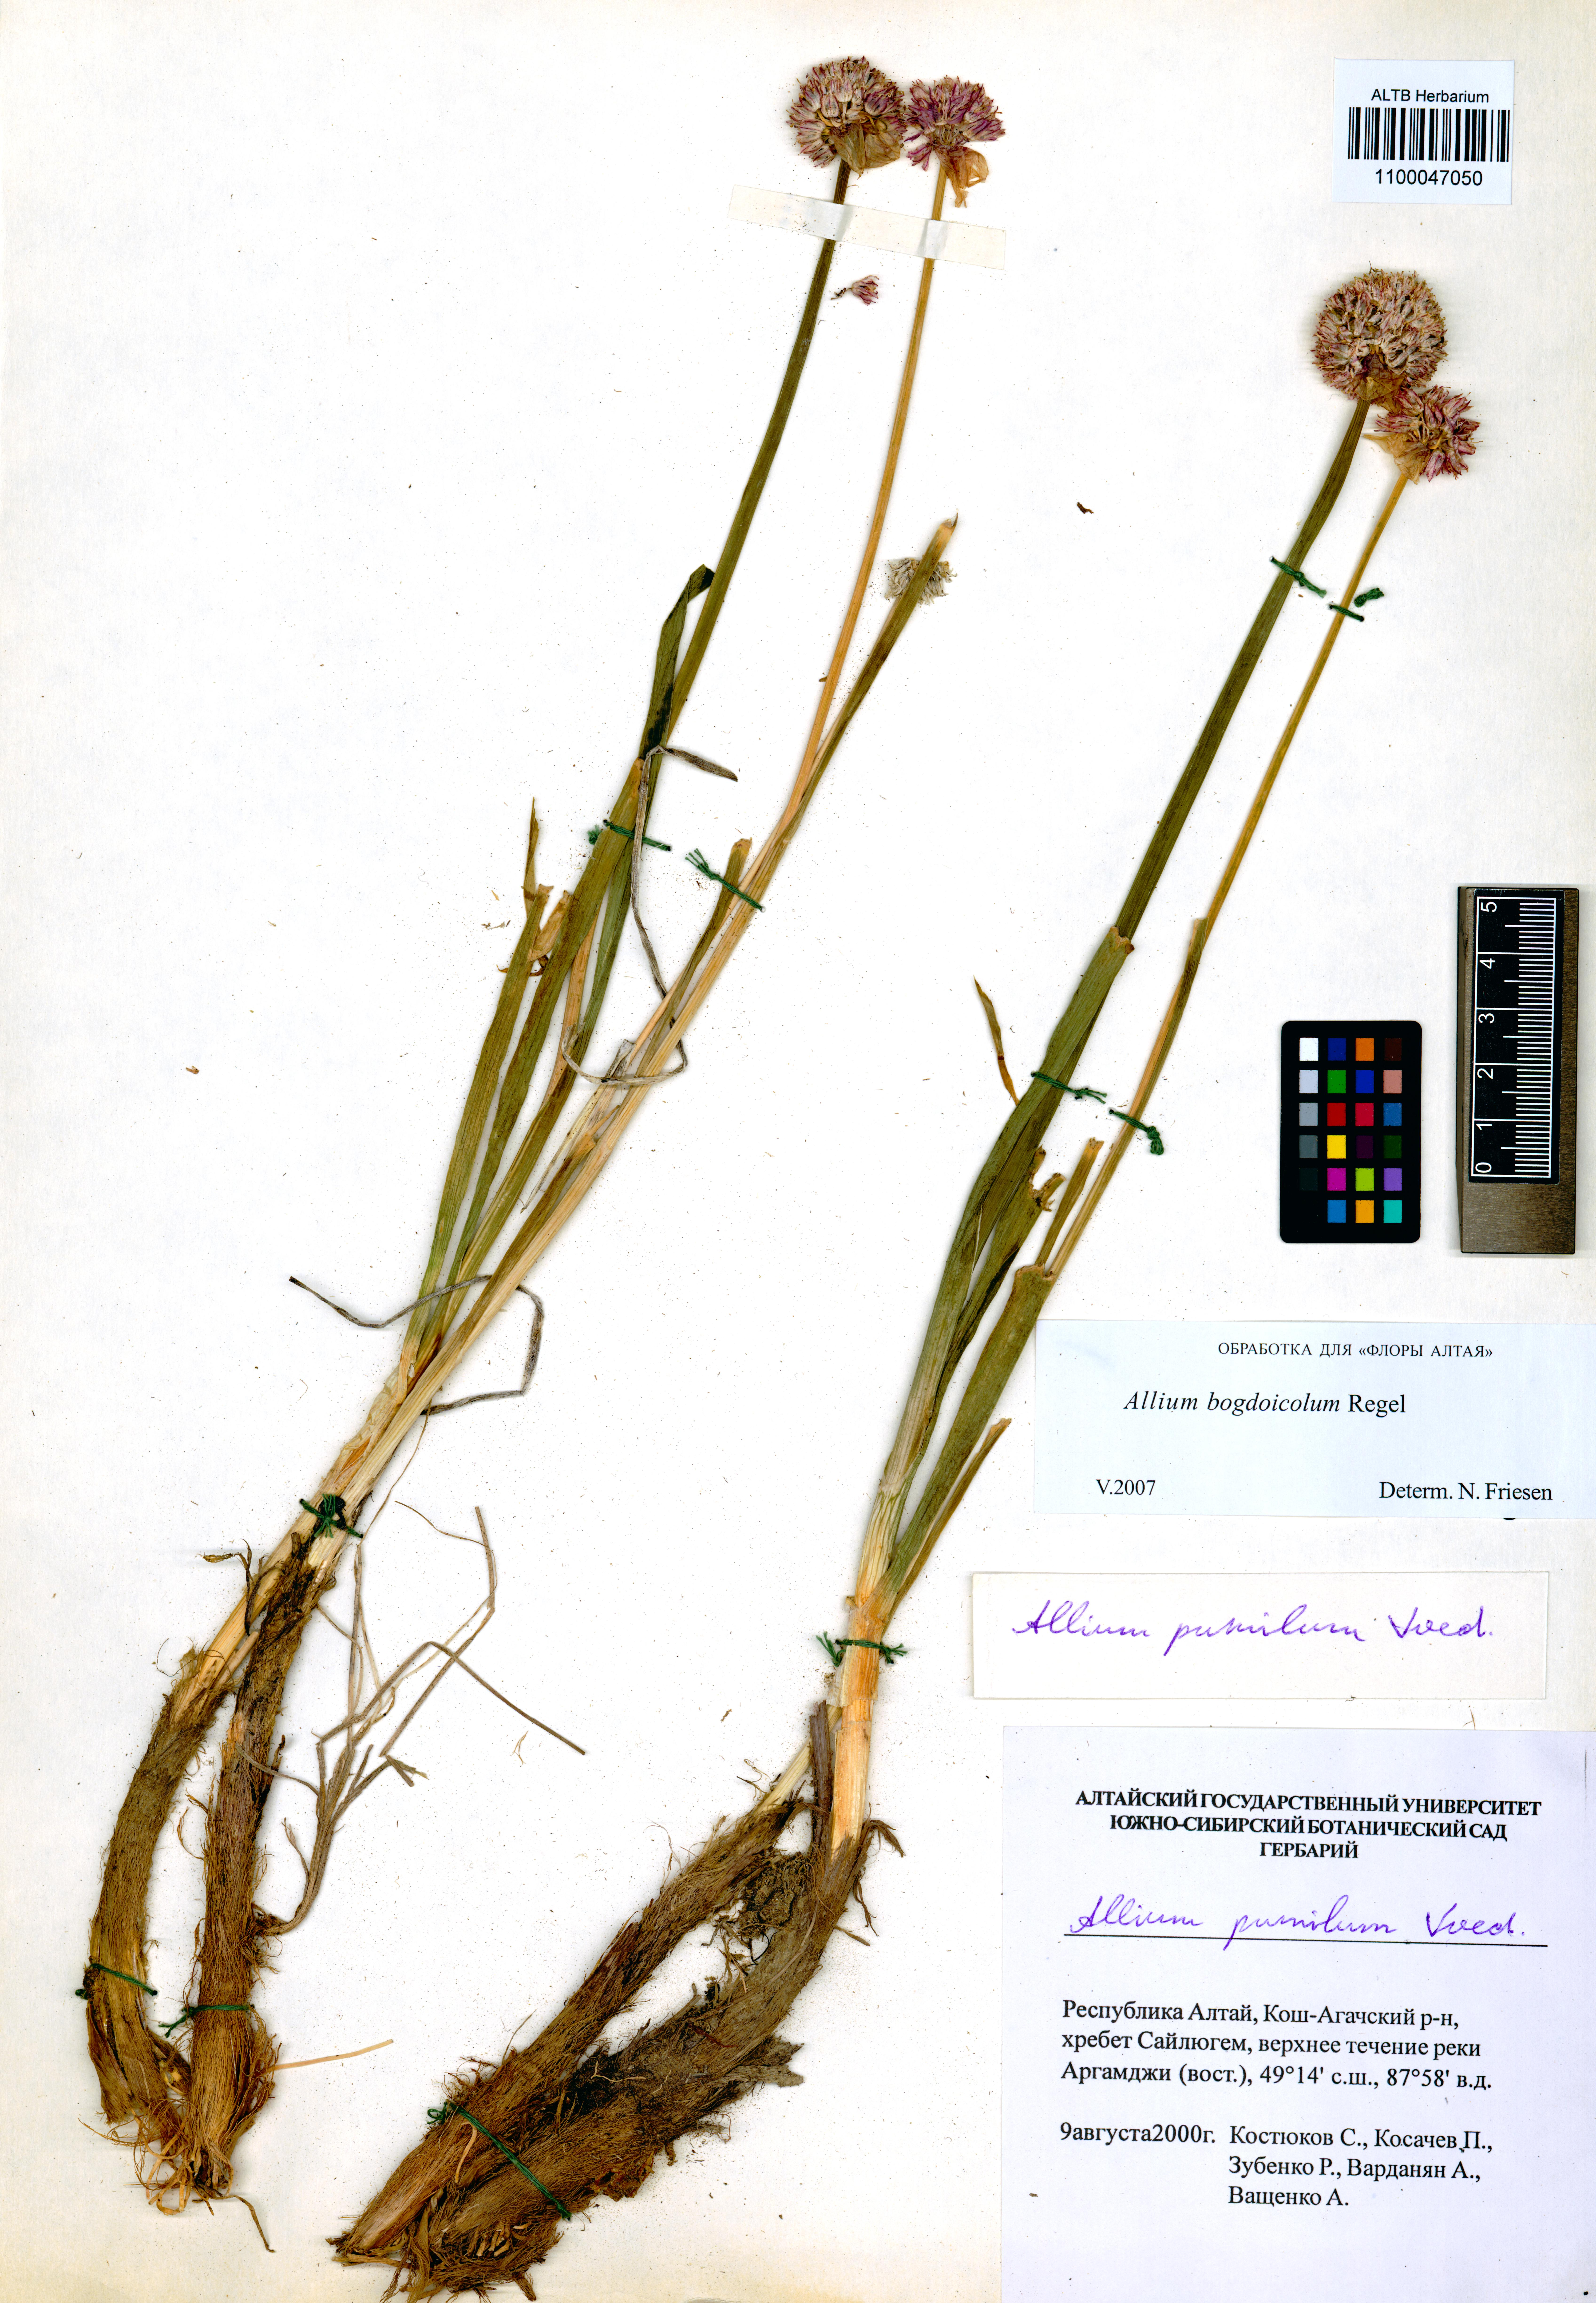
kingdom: Plantae
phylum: Tracheophyta
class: Liliopsida
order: Asparagales
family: Amaryllidaceae
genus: Allium
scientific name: Allium schrenkii
